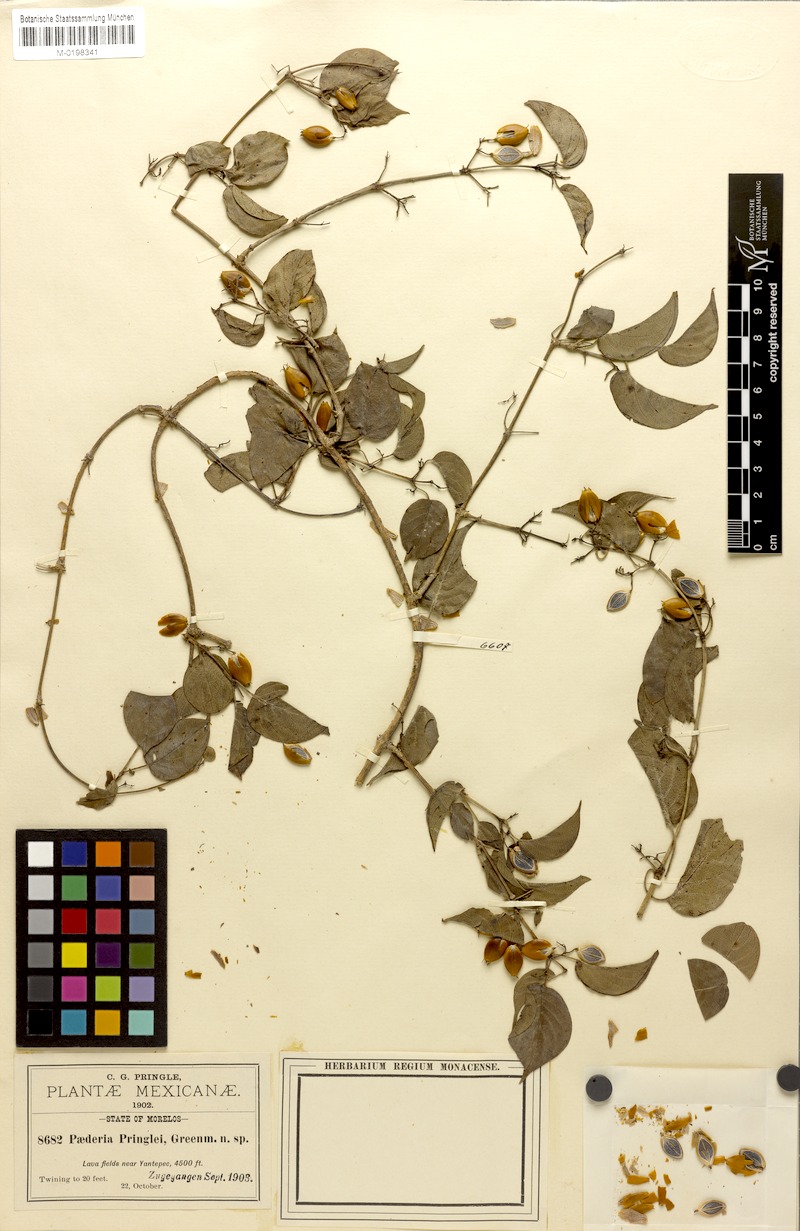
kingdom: Plantae
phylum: Tracheophyta
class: Magnoliopsida
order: Gentianales
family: Rubiaceae
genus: Paederia
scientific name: Paederia ciliata
